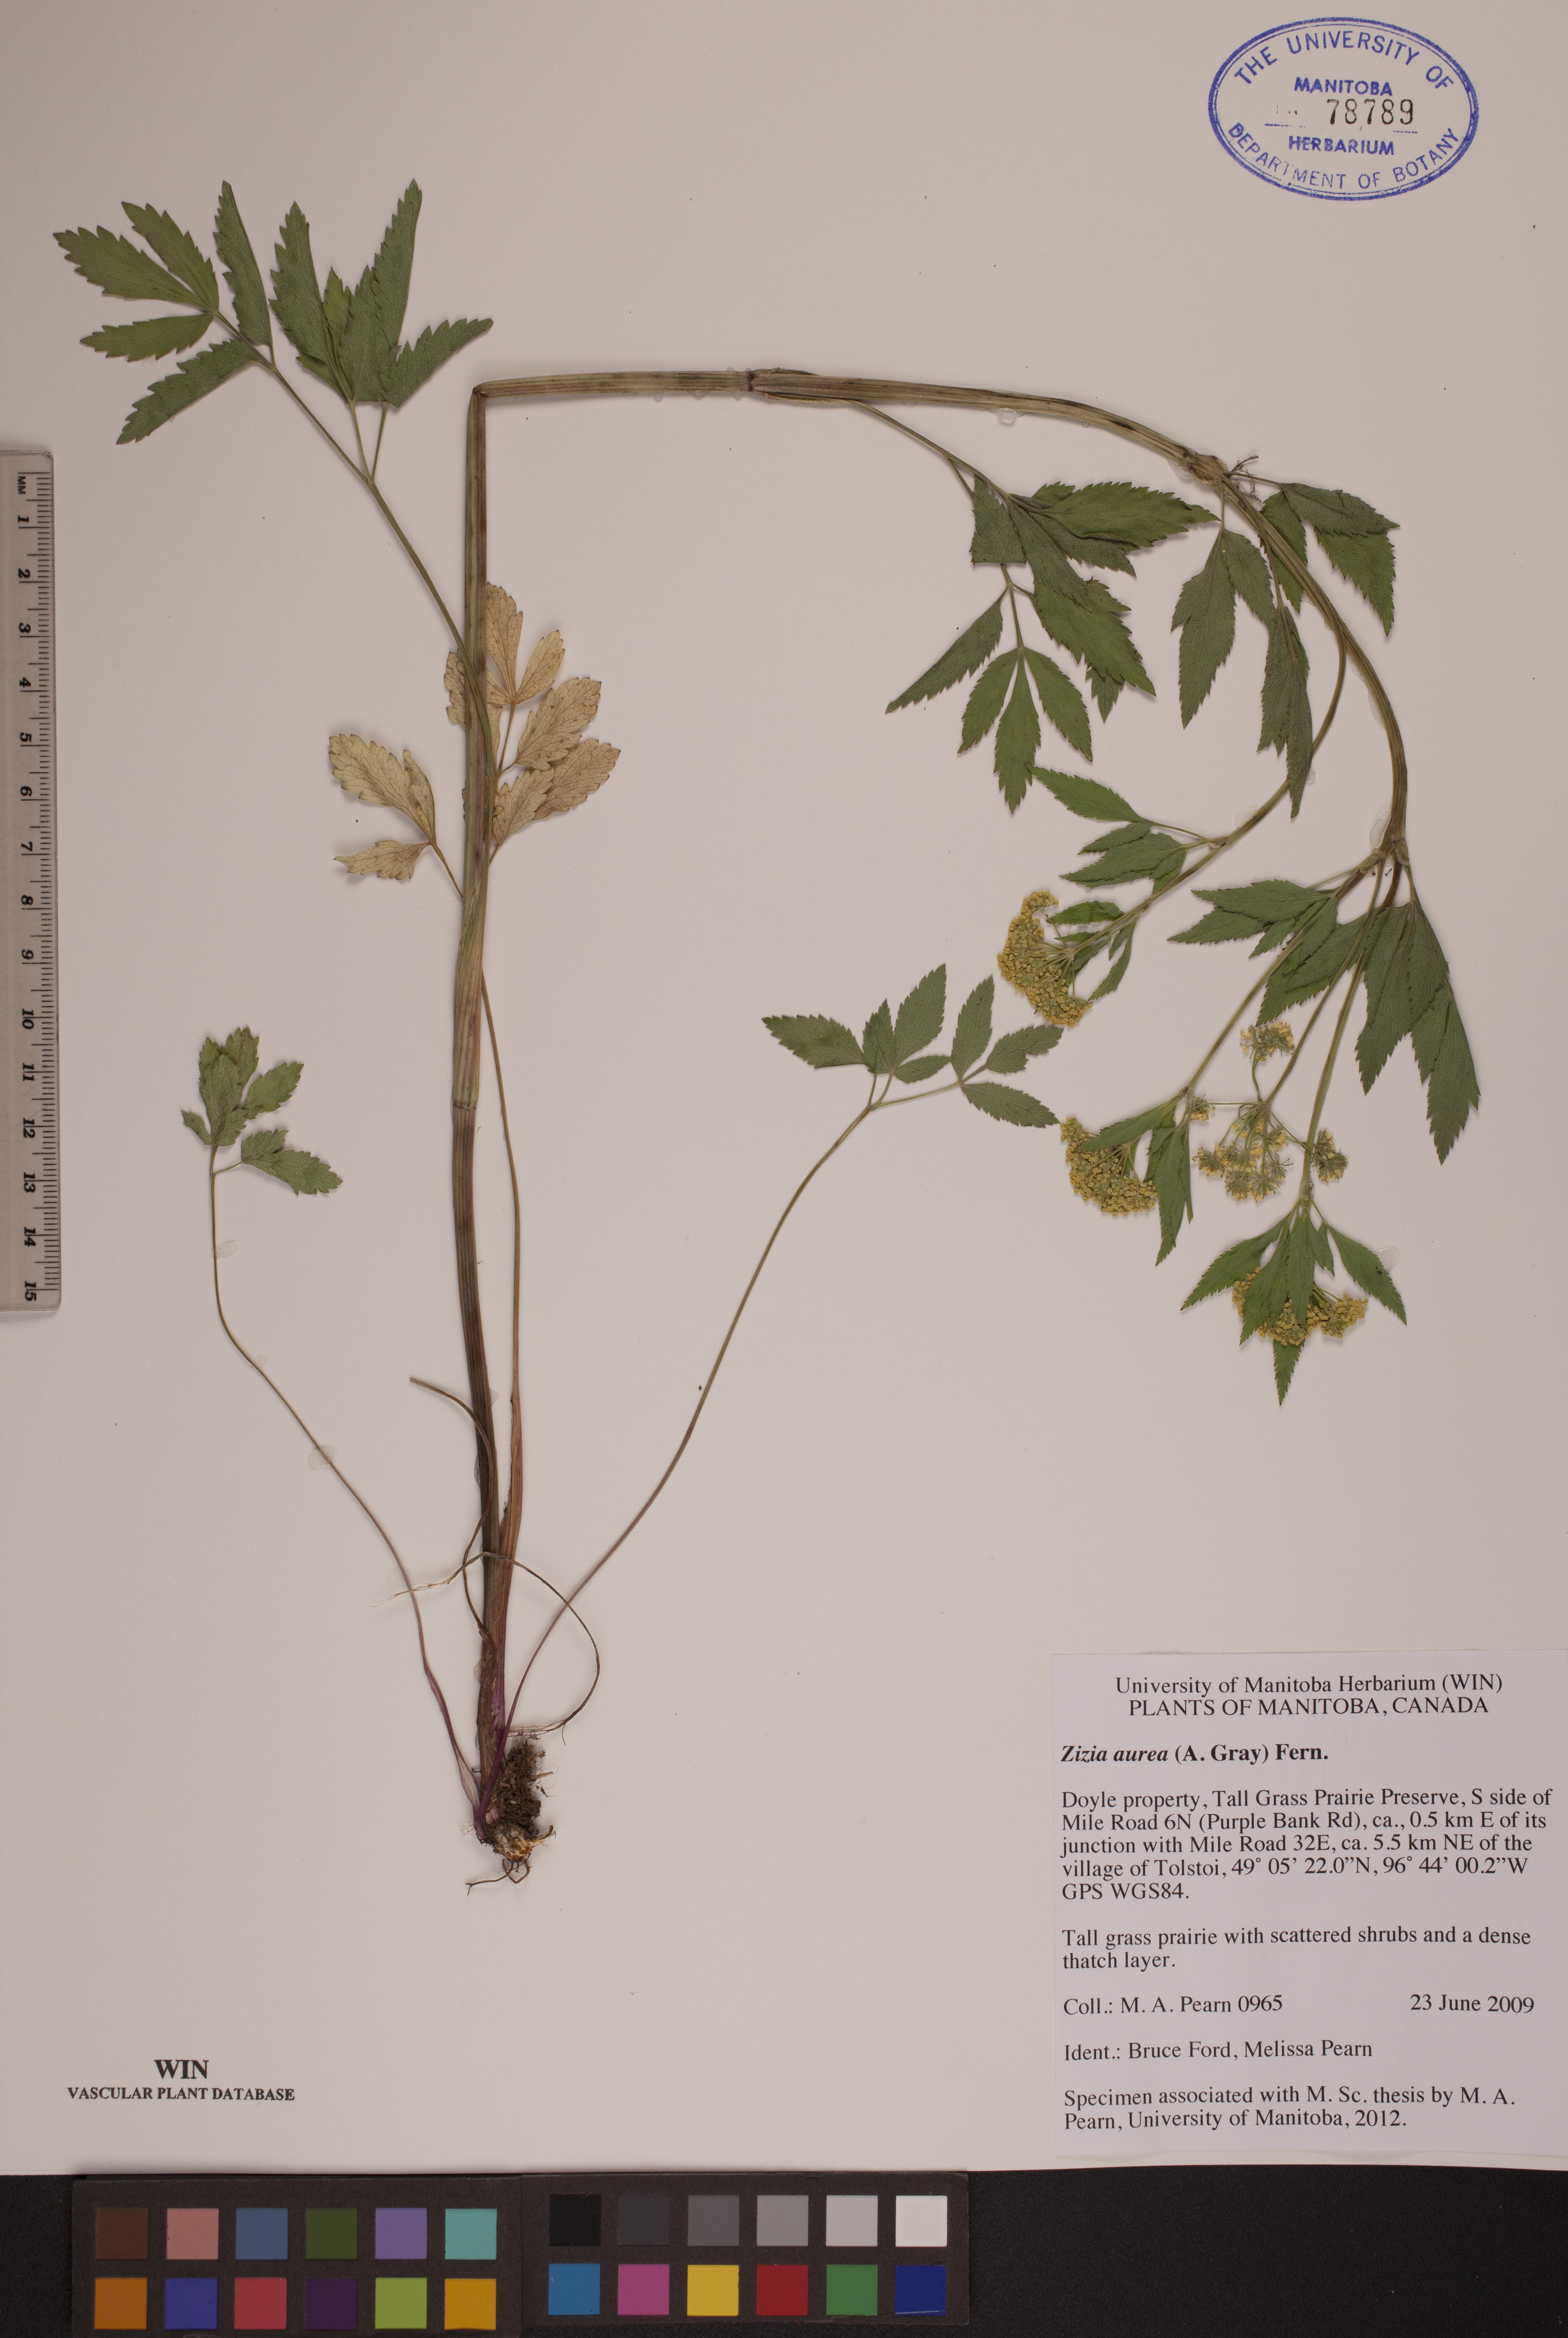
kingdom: Plantae
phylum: Tracheophyta
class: Magnoliopsida
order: Apiales
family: Apiaceae
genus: Zizia
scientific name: Zizia aurea
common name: Golden alexanders
